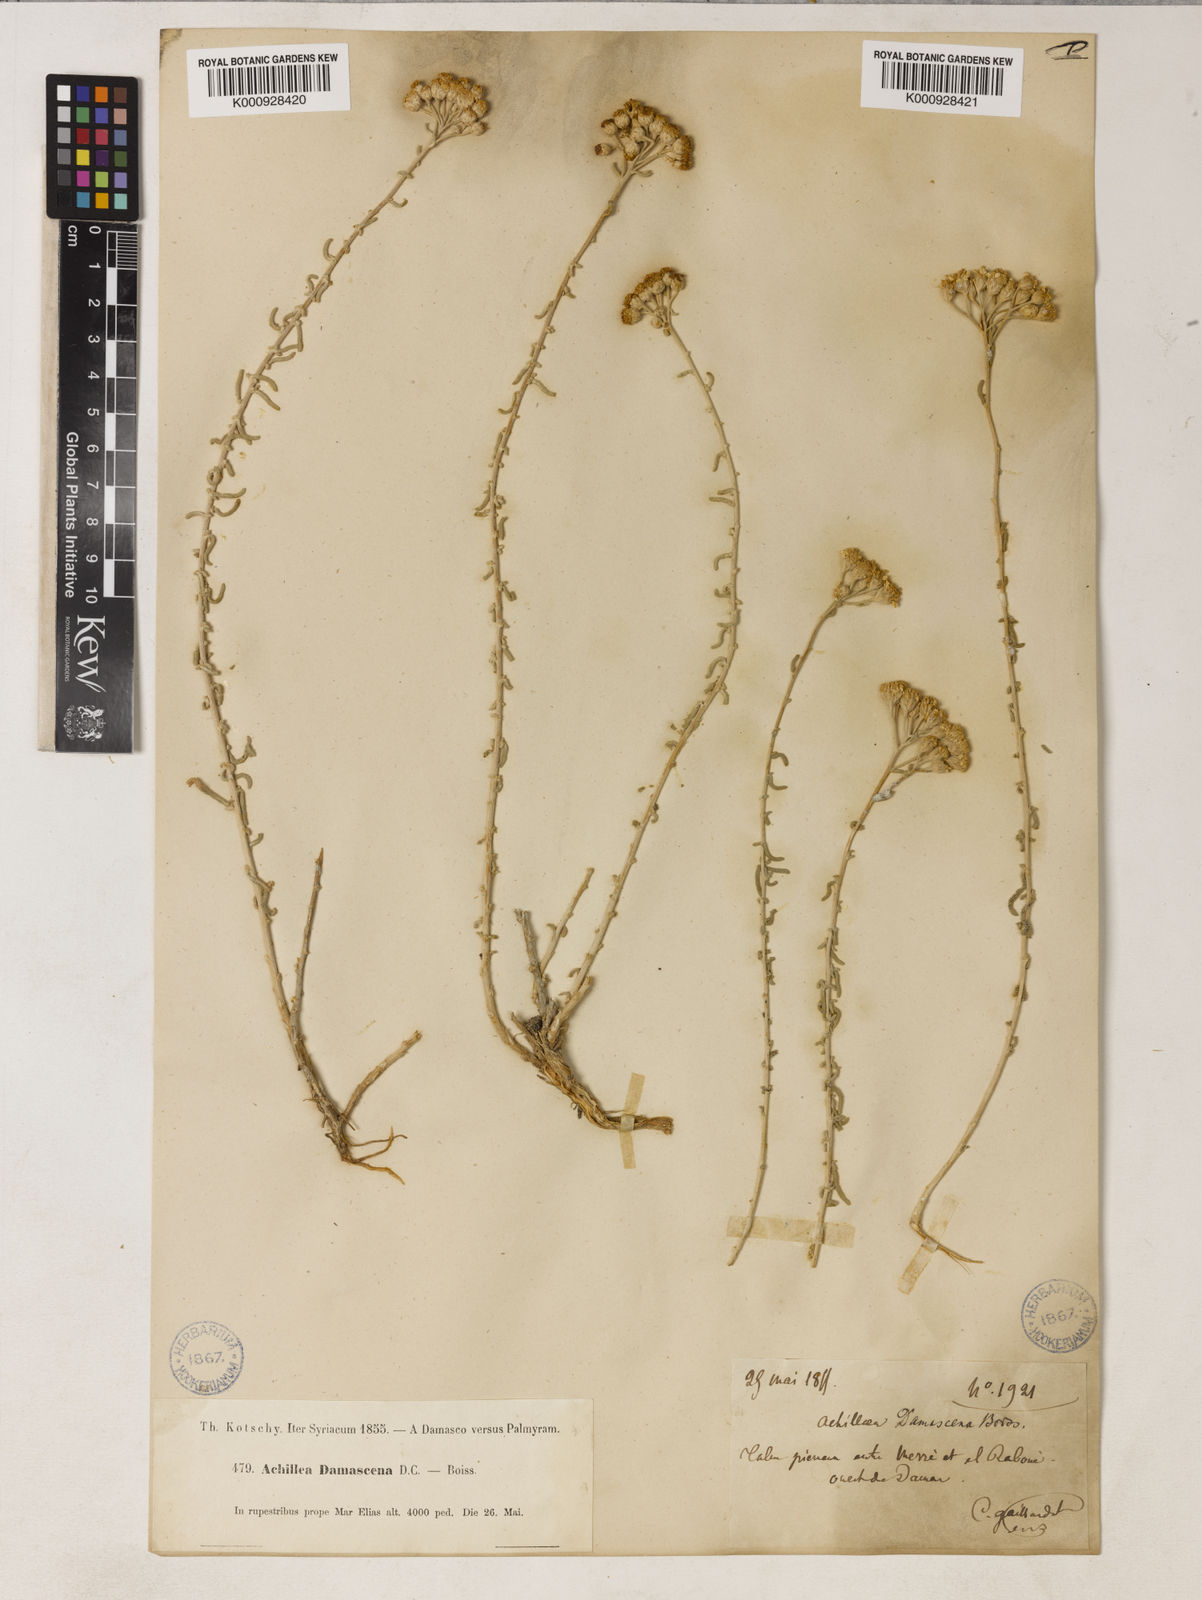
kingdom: Plantae
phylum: Tracheophyta
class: Magnoliopsida
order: Asterales
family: Asteraceae
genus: Achillea
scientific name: Achillea falcata
